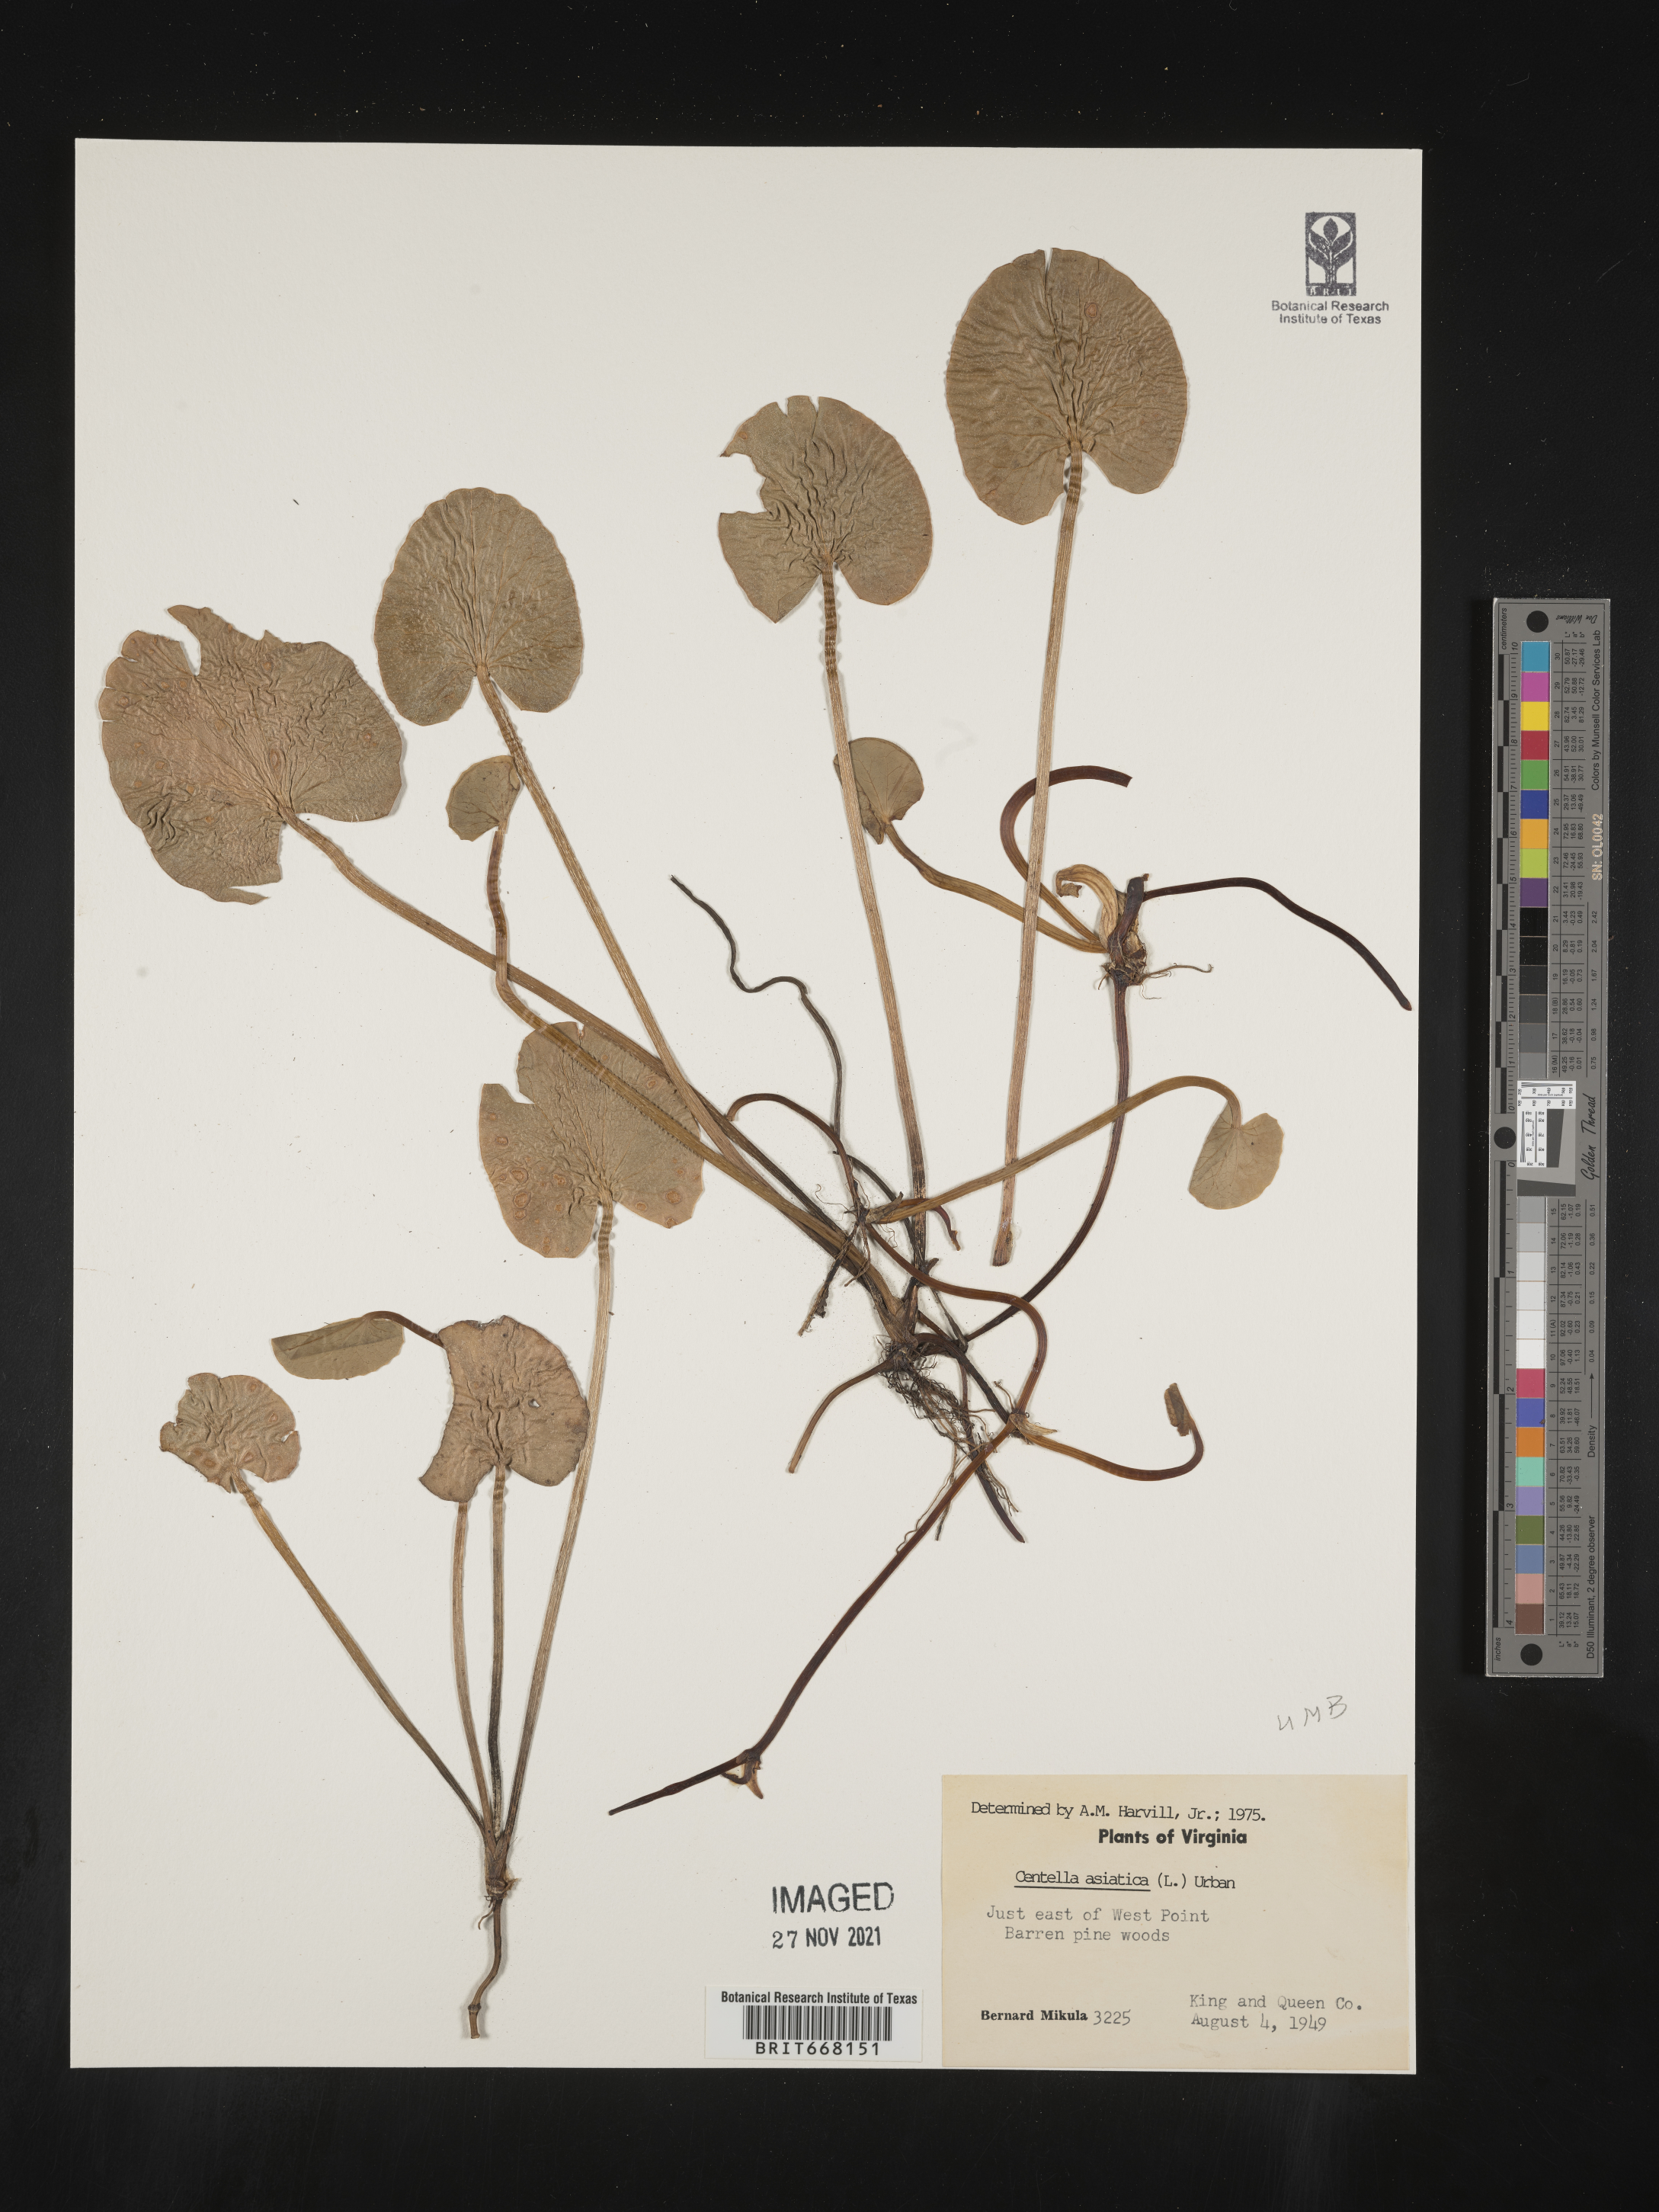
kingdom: Plantae
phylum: Tracheophyta
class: Magnoliopsida
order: Apiales
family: Apiaceae
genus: Centella
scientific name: Centella
